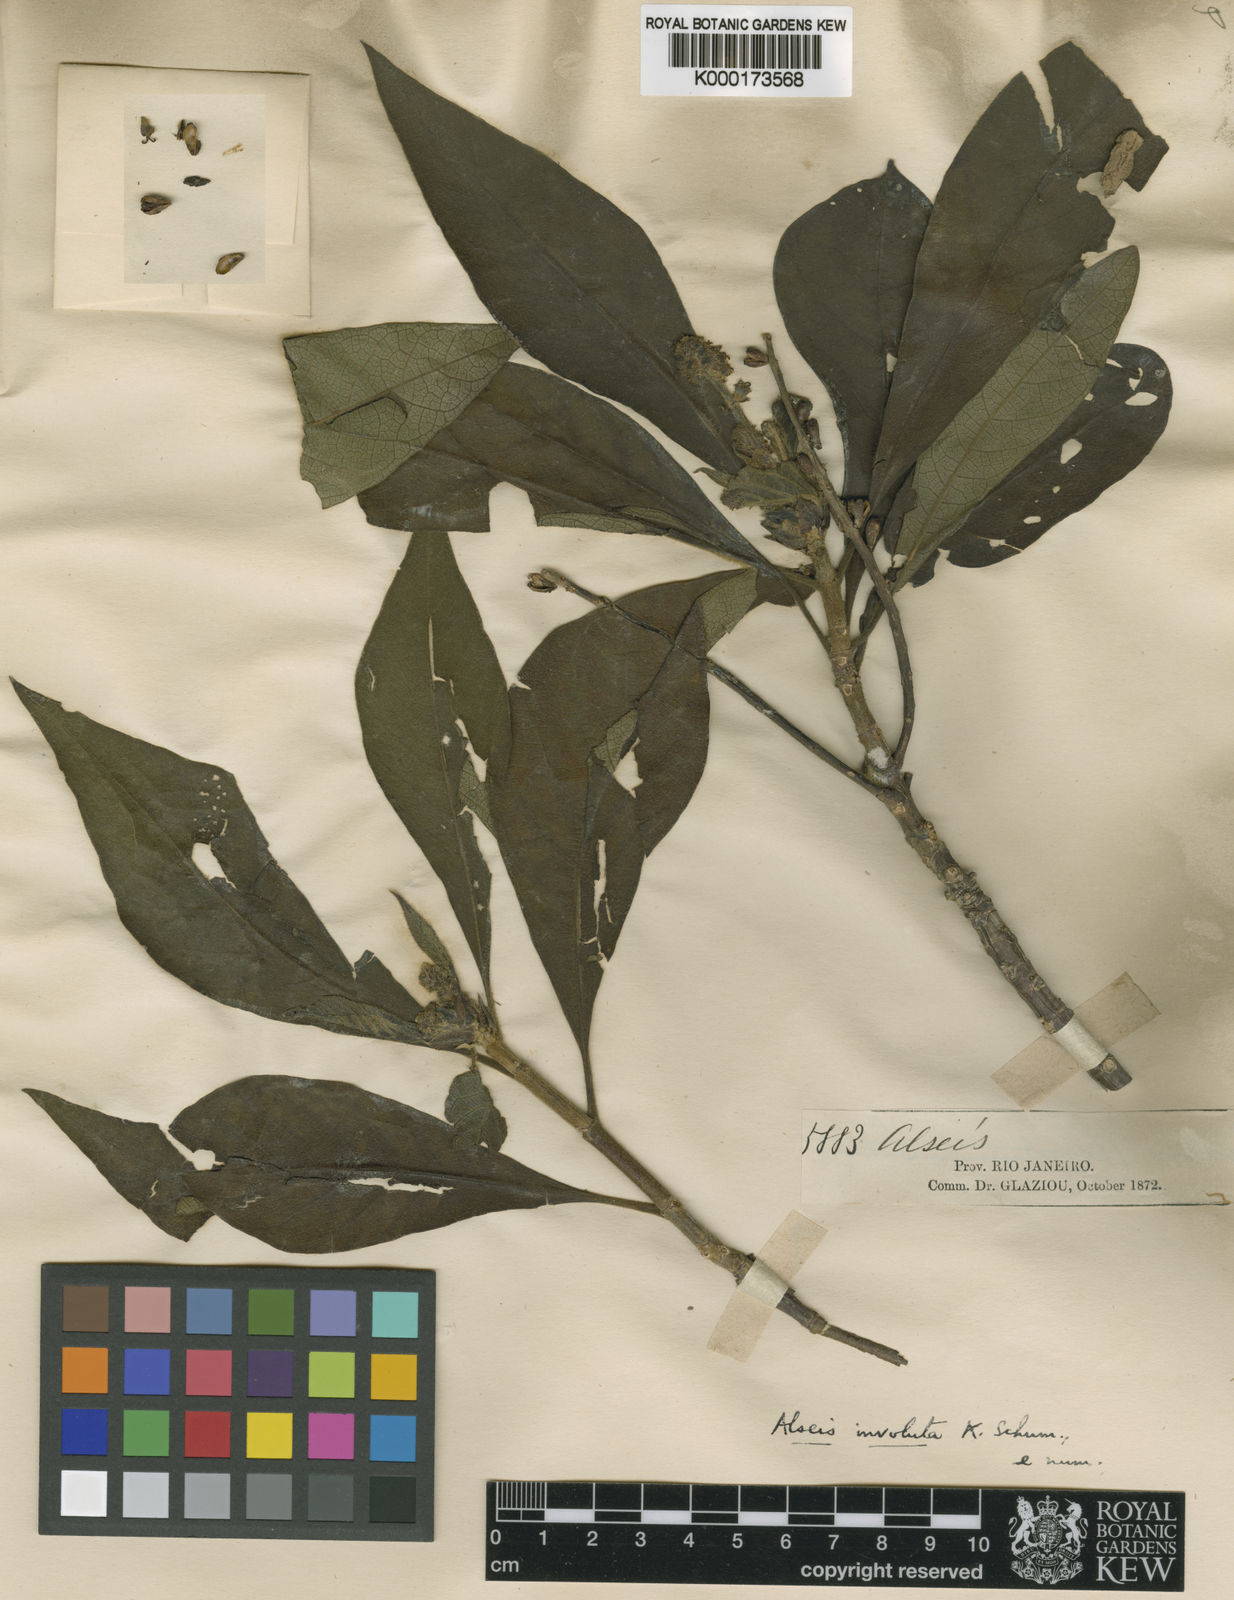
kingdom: Plantae
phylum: Tracheophyta
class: Magnoliopsida
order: Gentianales
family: Rubiaceae
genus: Alseis
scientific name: Alseis involuta
